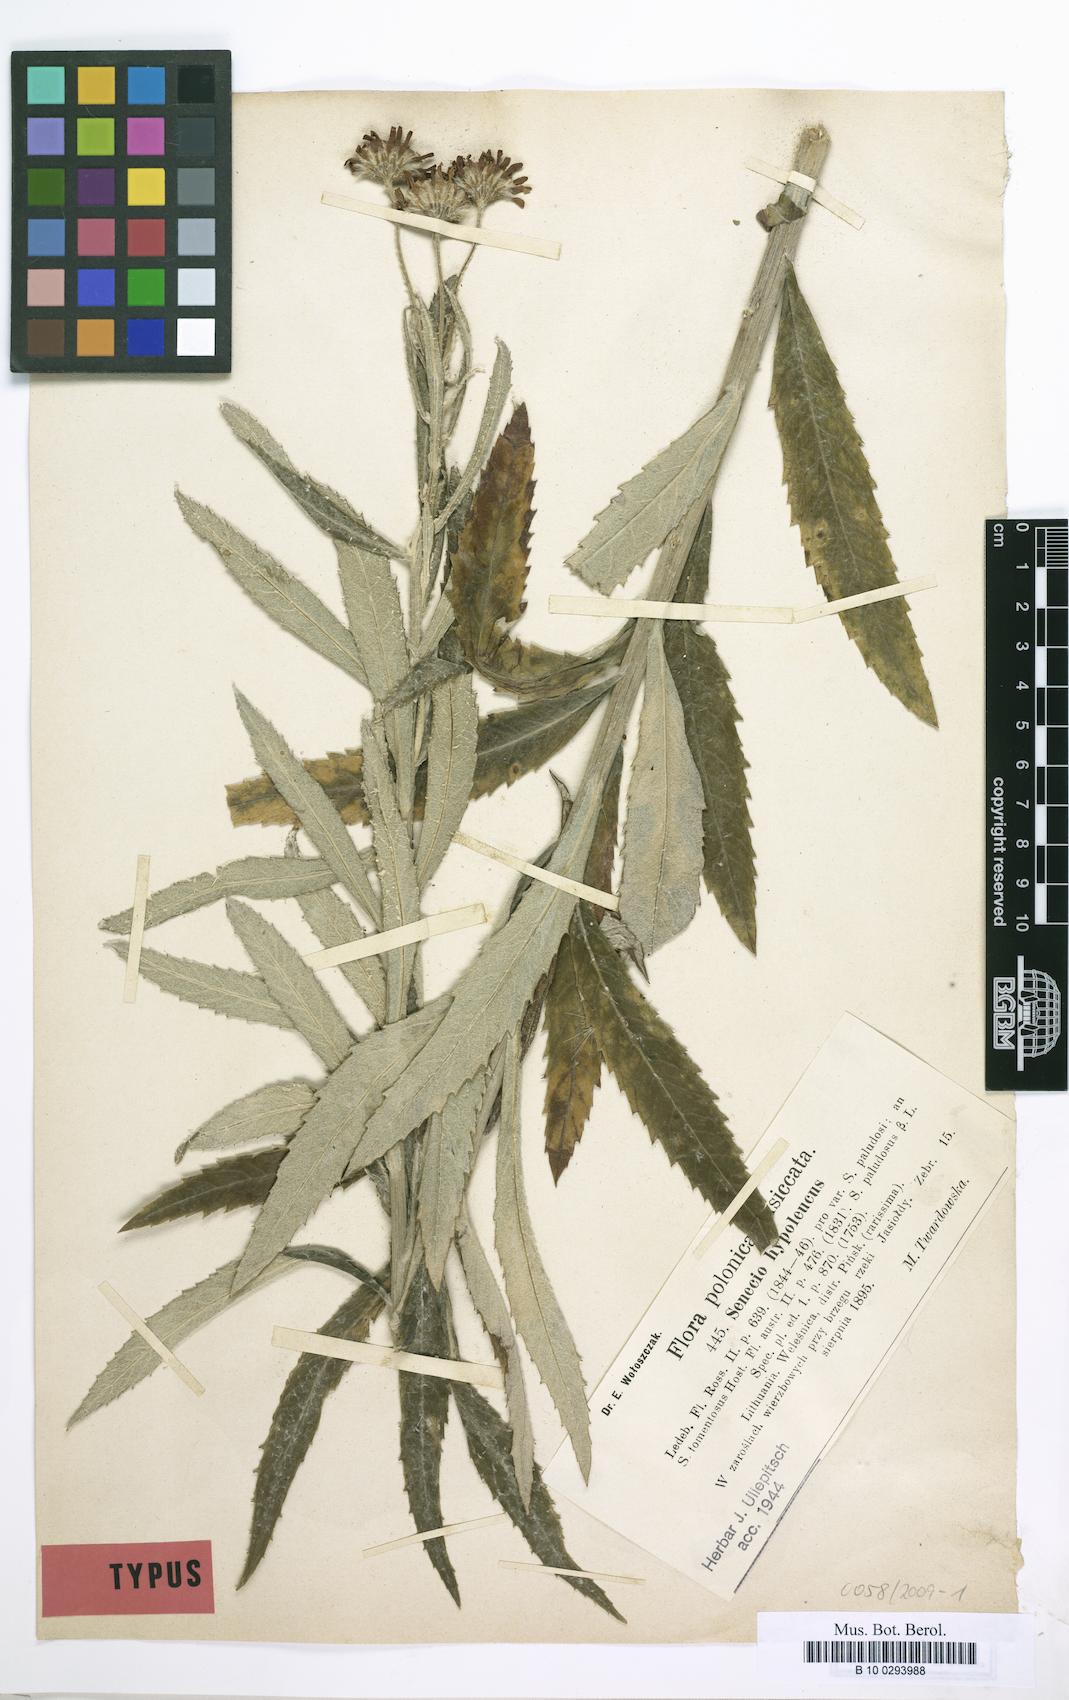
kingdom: Plantae
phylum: Tracheophyta
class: Magnoliopsida
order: Asterales
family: Asteraceae
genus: Jacobaea
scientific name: Jacobaea paludosa
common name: Fen ragwort
